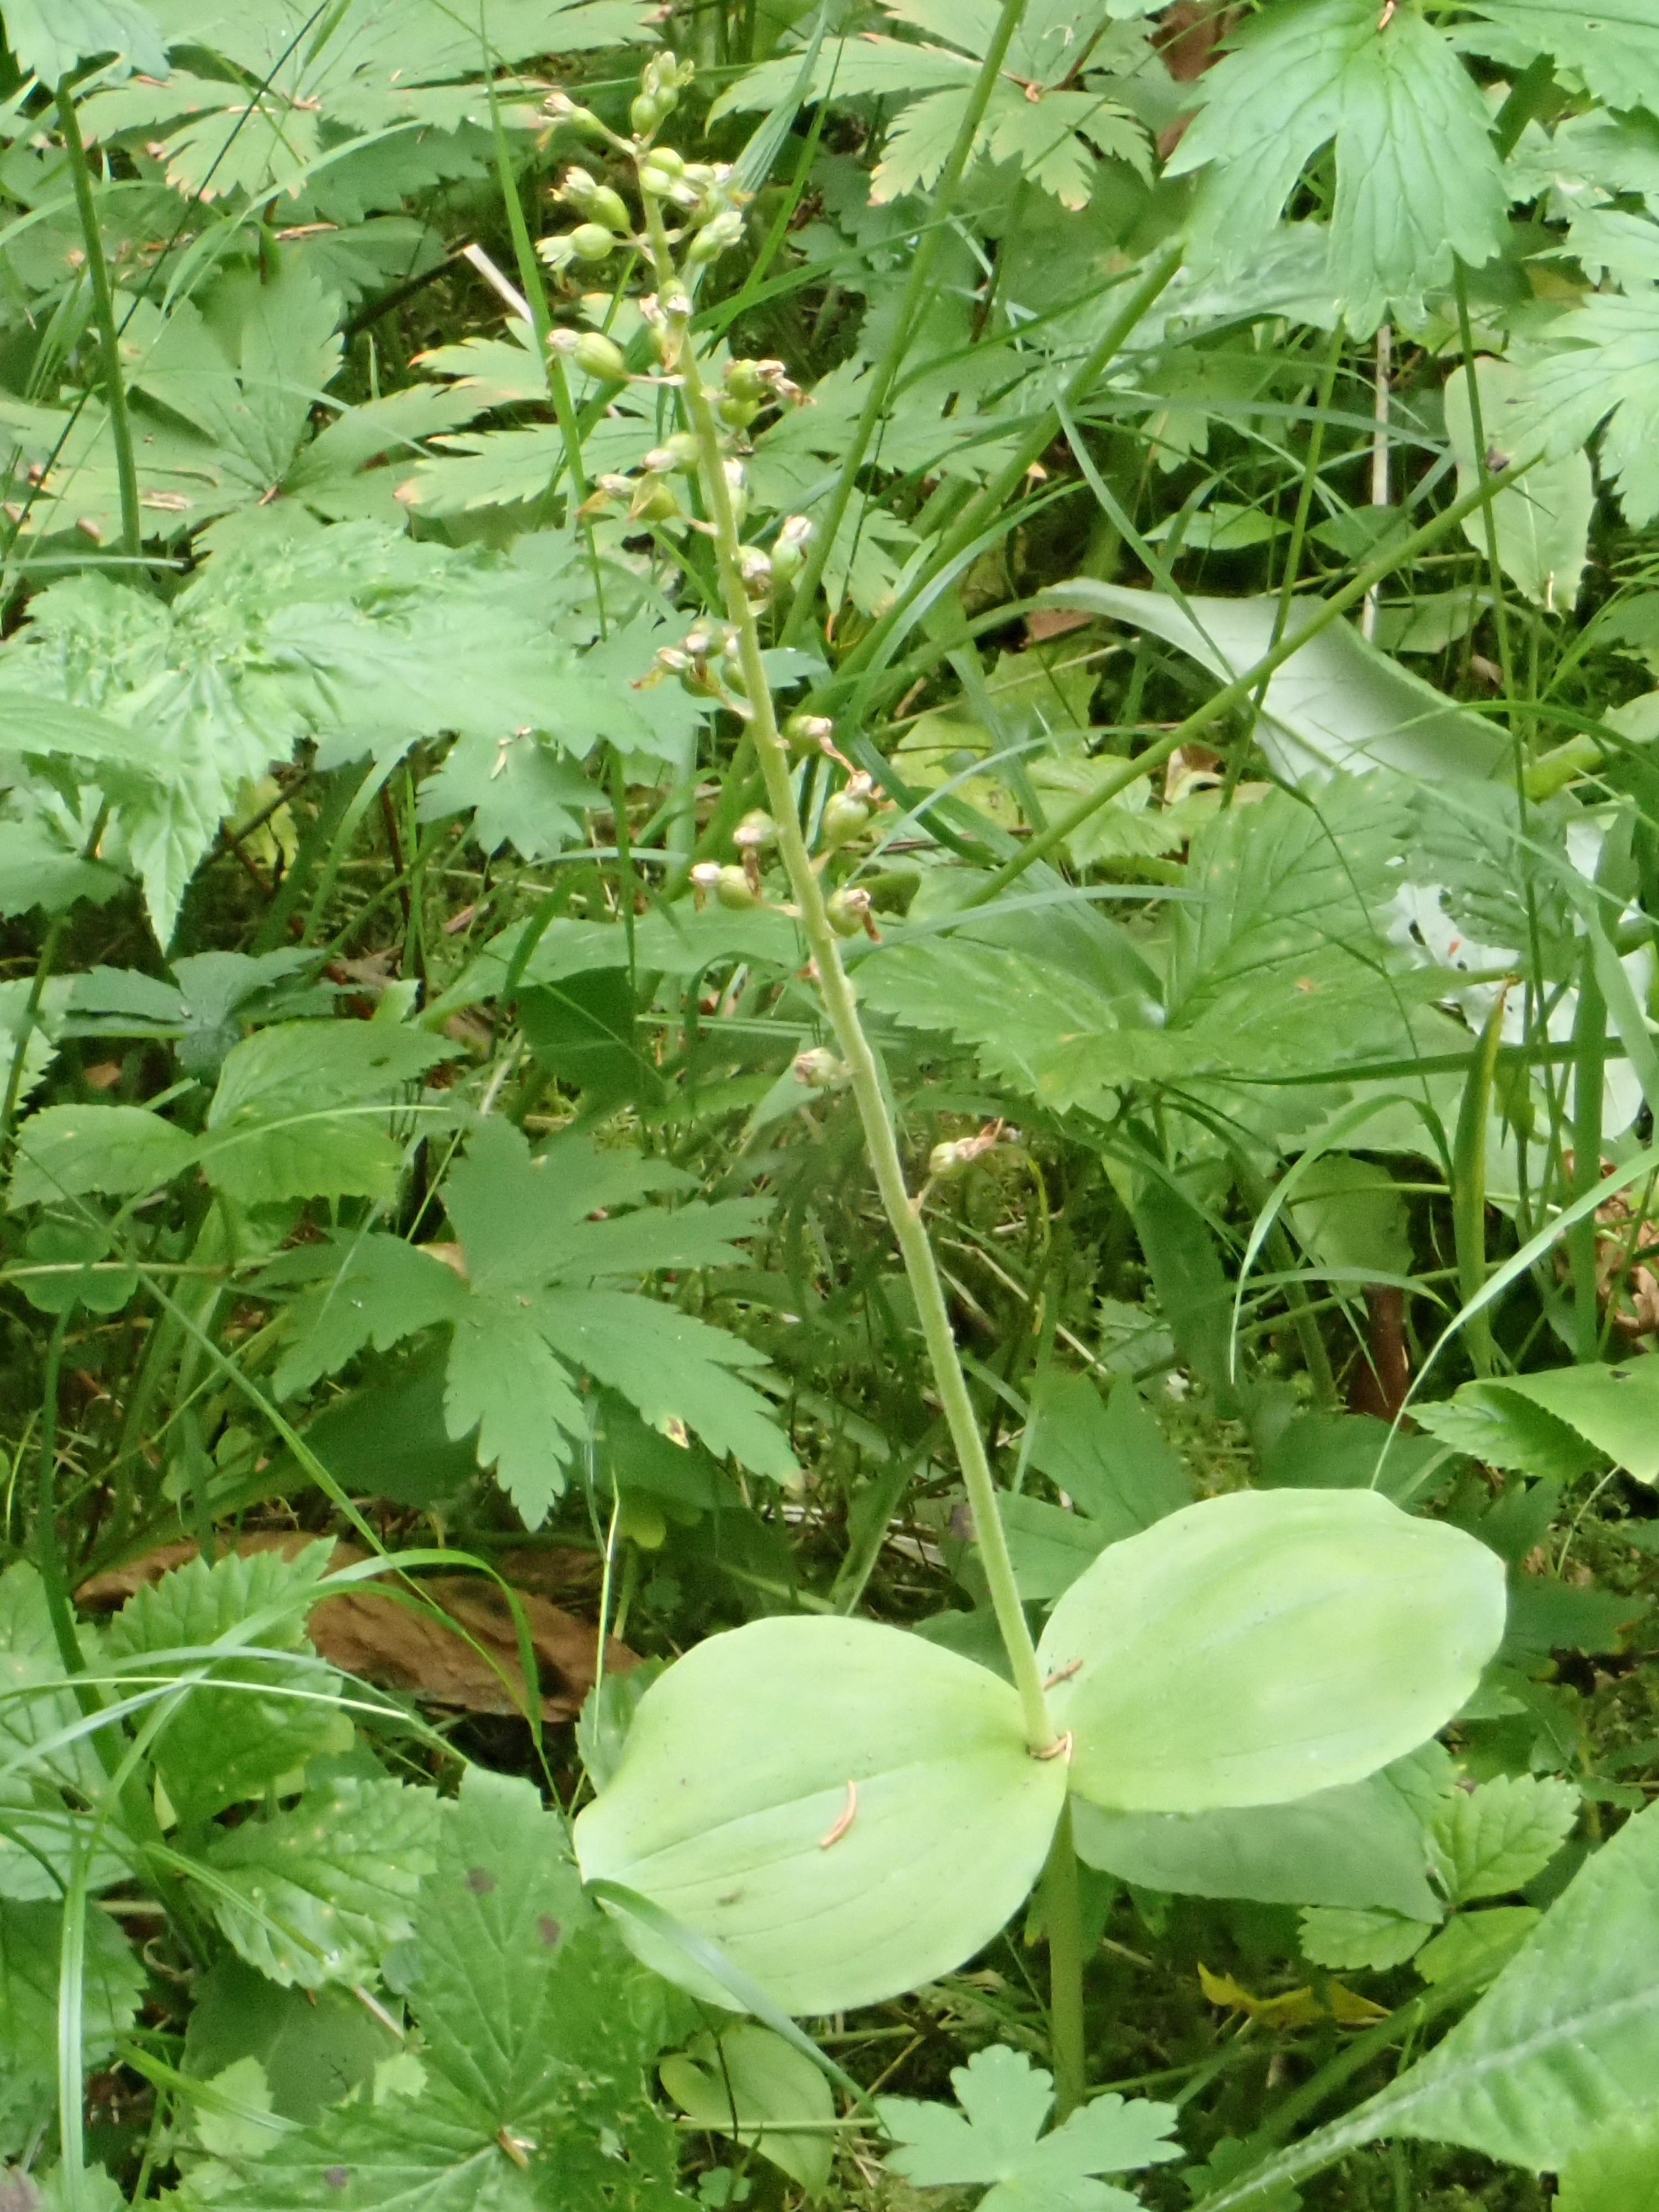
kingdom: Plantae
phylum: Tracheophyta
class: Liliopsida
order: Asparagales
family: Orchidaceae
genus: Neottia
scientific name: Neottia ovata
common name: Common twayblade
